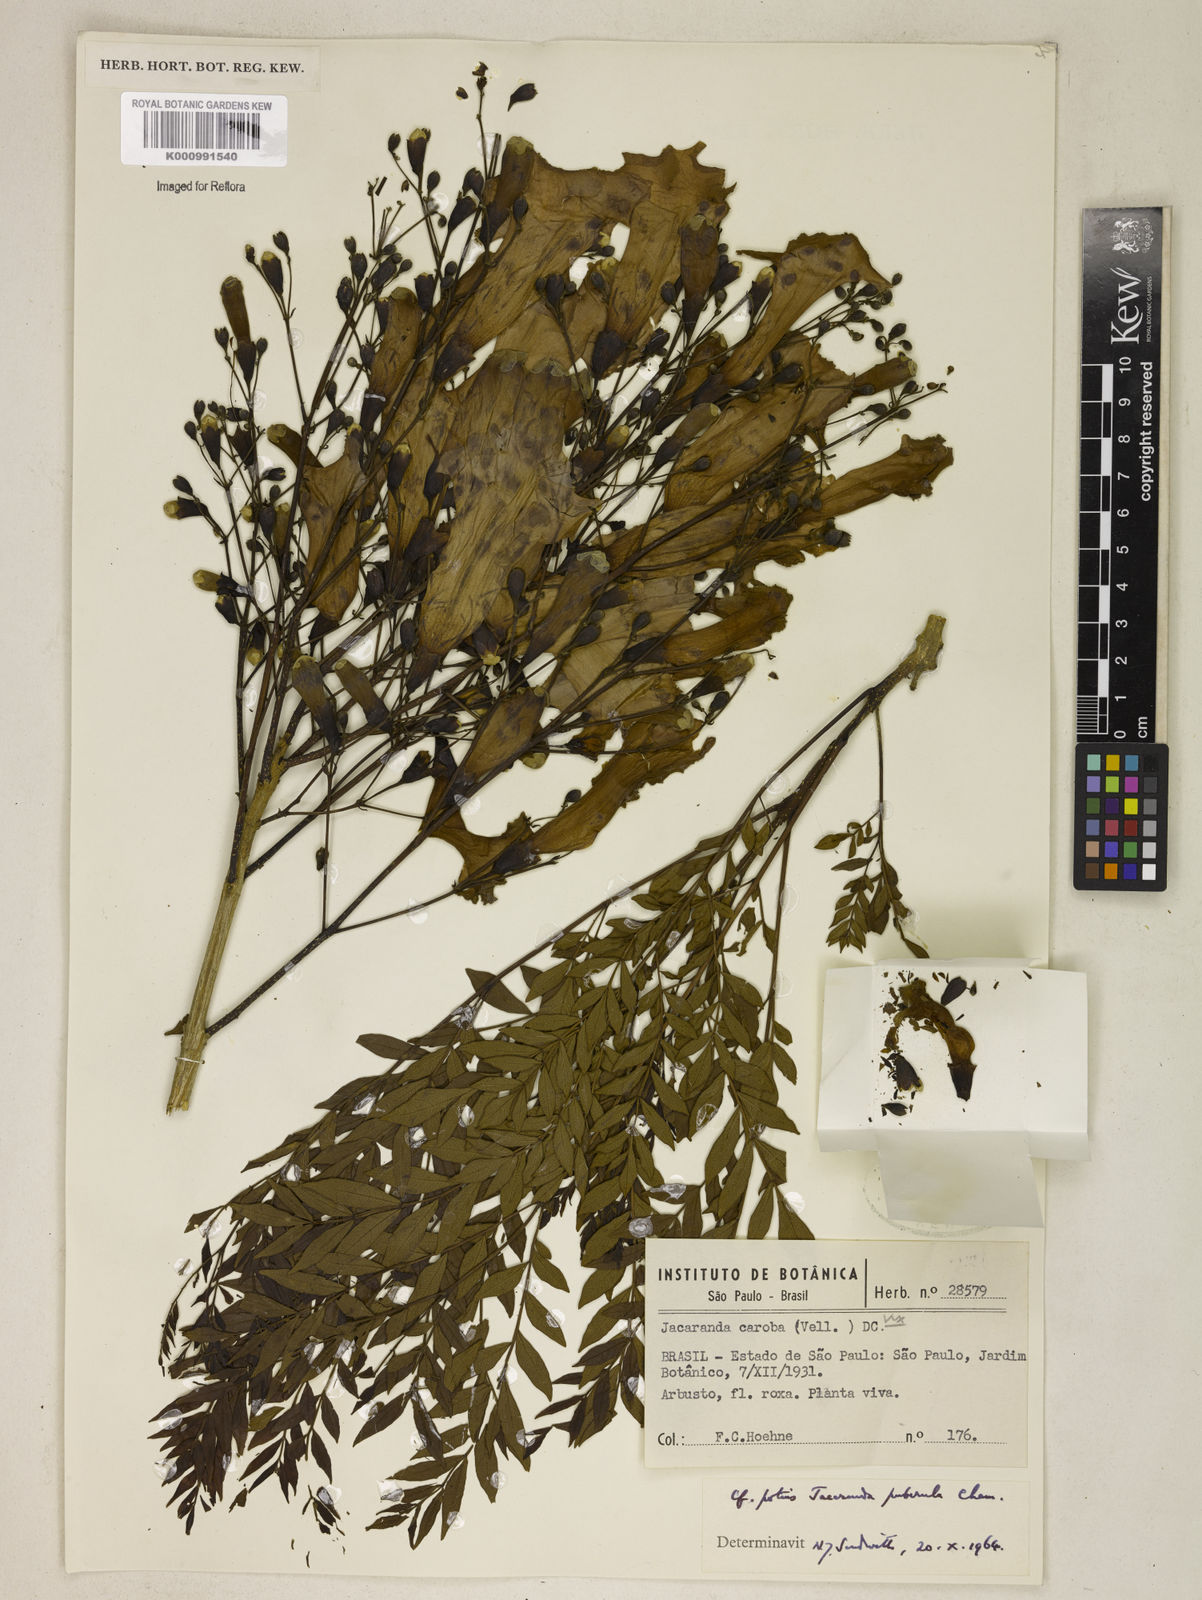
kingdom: Plantae
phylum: Tracheophyta
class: Magnoliopsida
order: Lamiales
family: Bignoniaceae
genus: Jacaranda
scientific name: Jacaranda puberula
